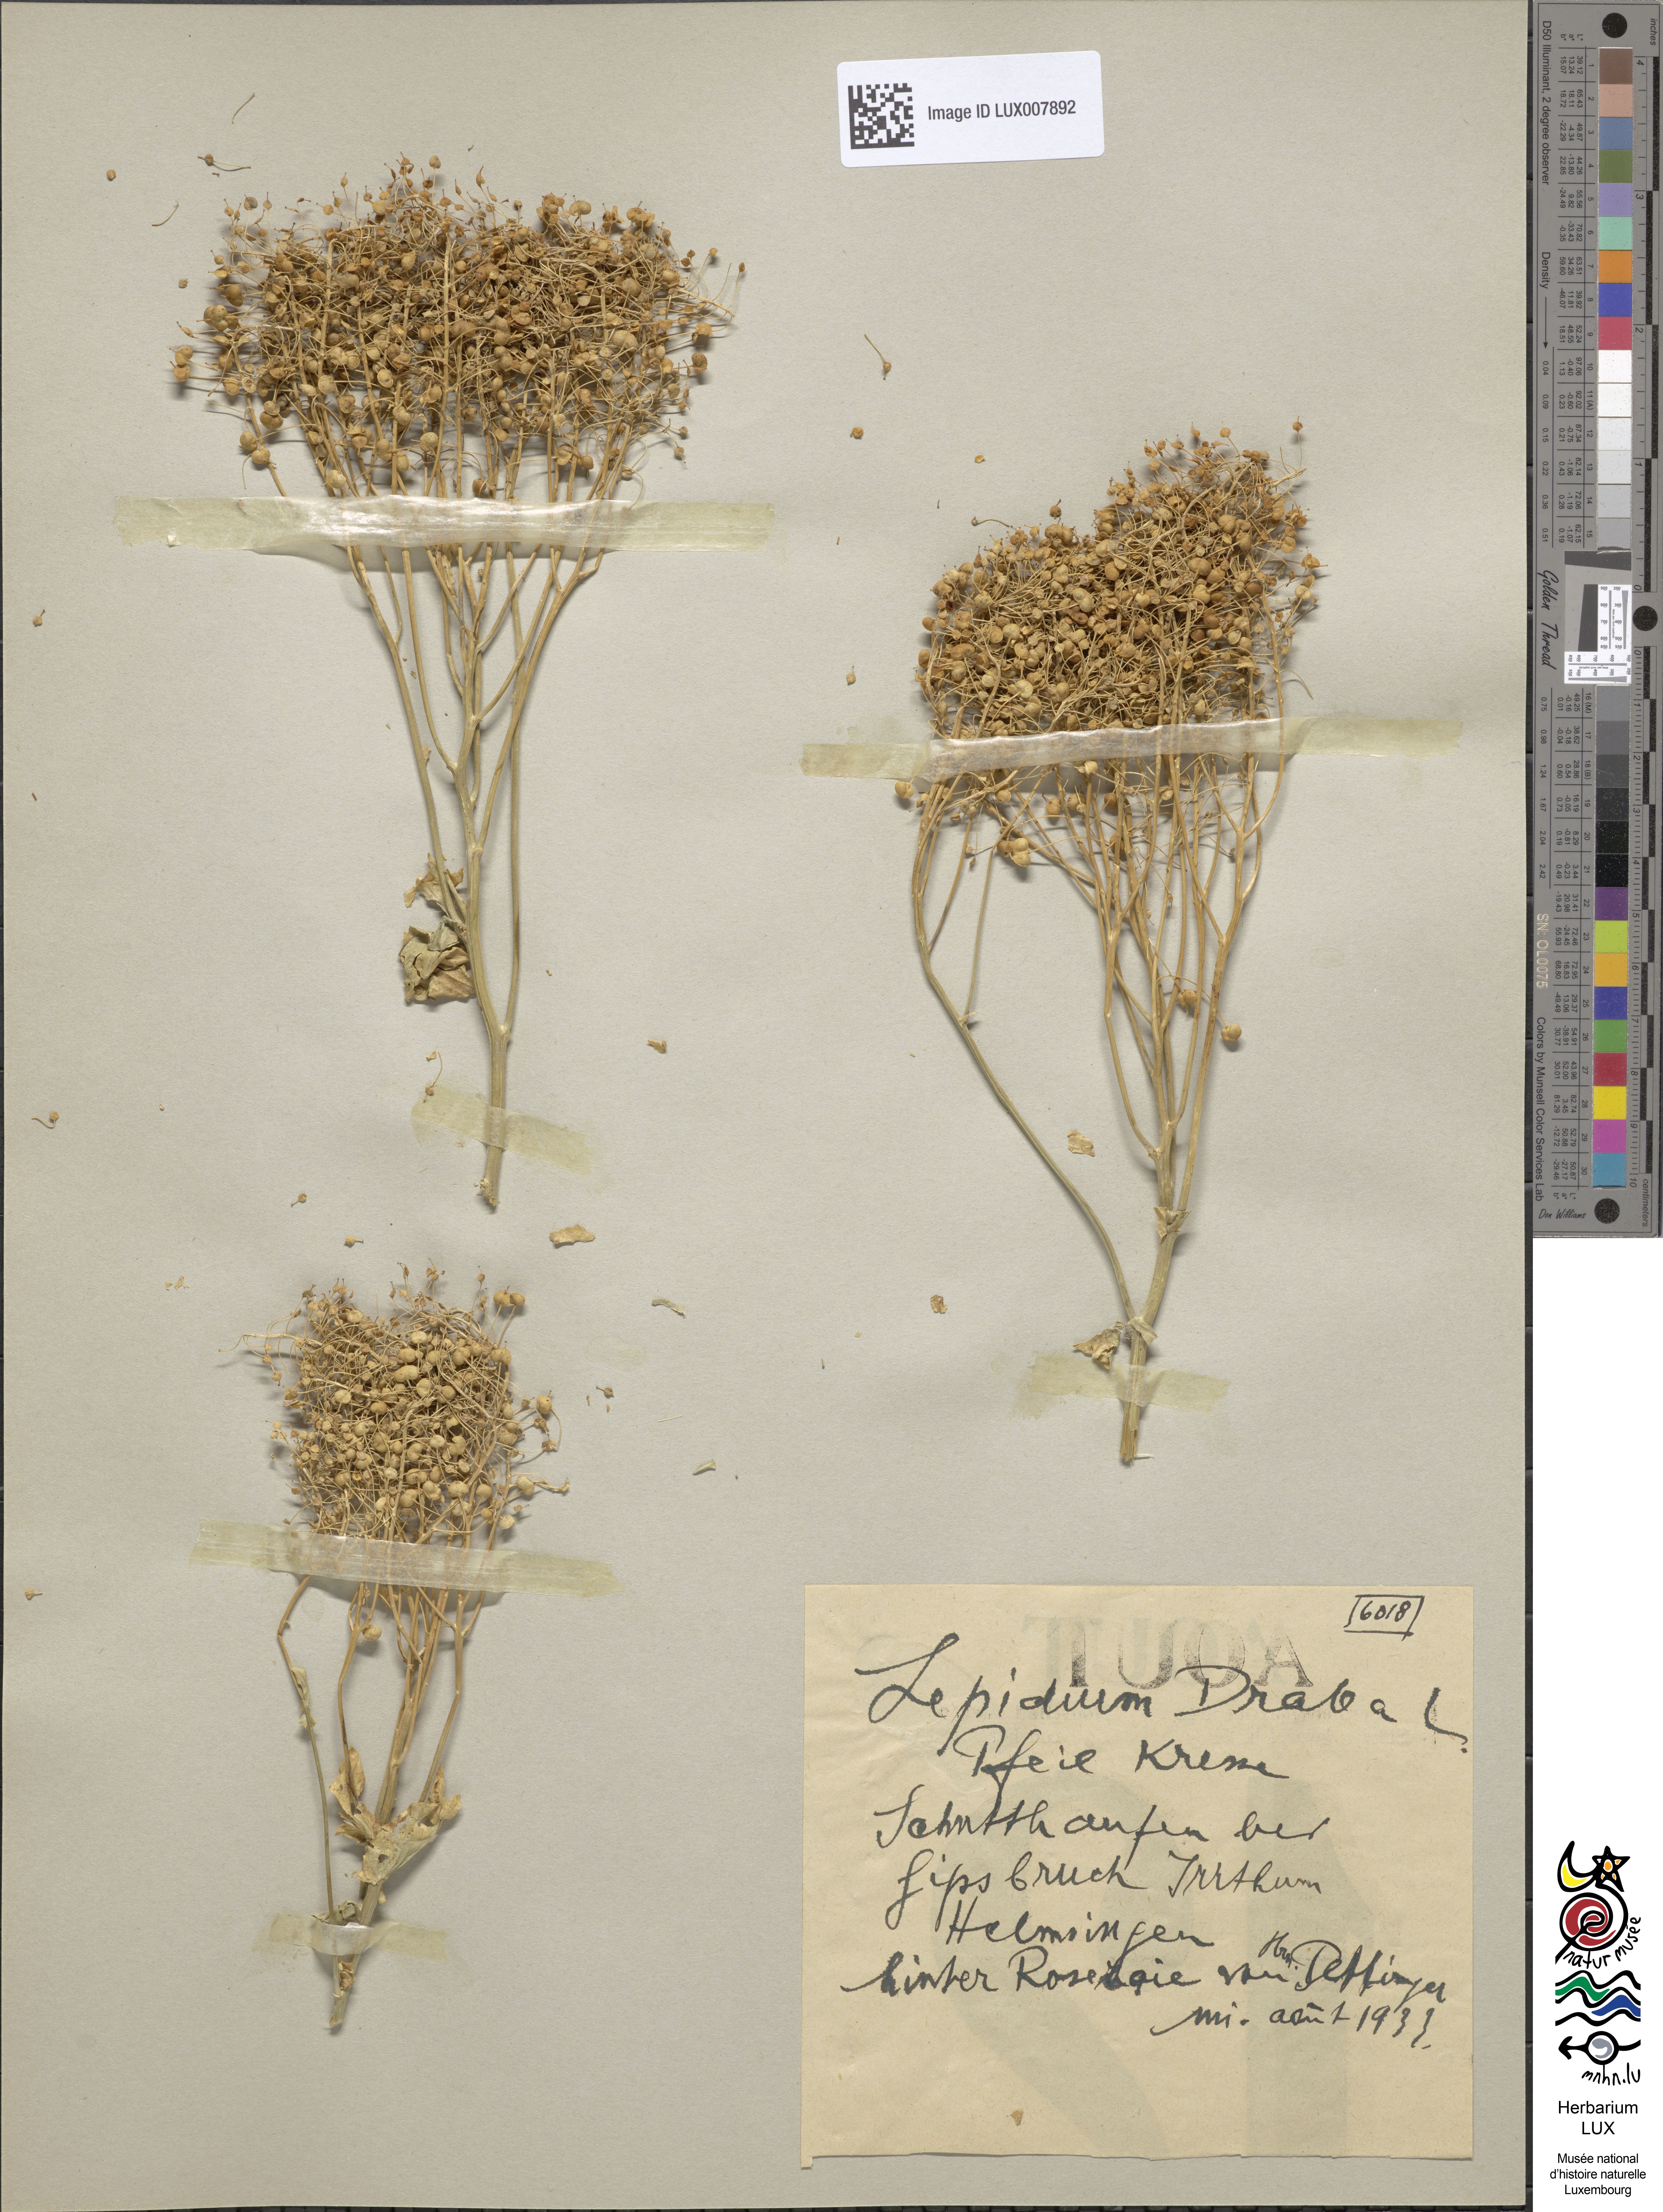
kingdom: Plantae
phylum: Tracheophyta
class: Magnoliopsida
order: Brassicales
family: Brassicaceae
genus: Lepidium
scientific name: Lepidium draba
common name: Hoary cress
